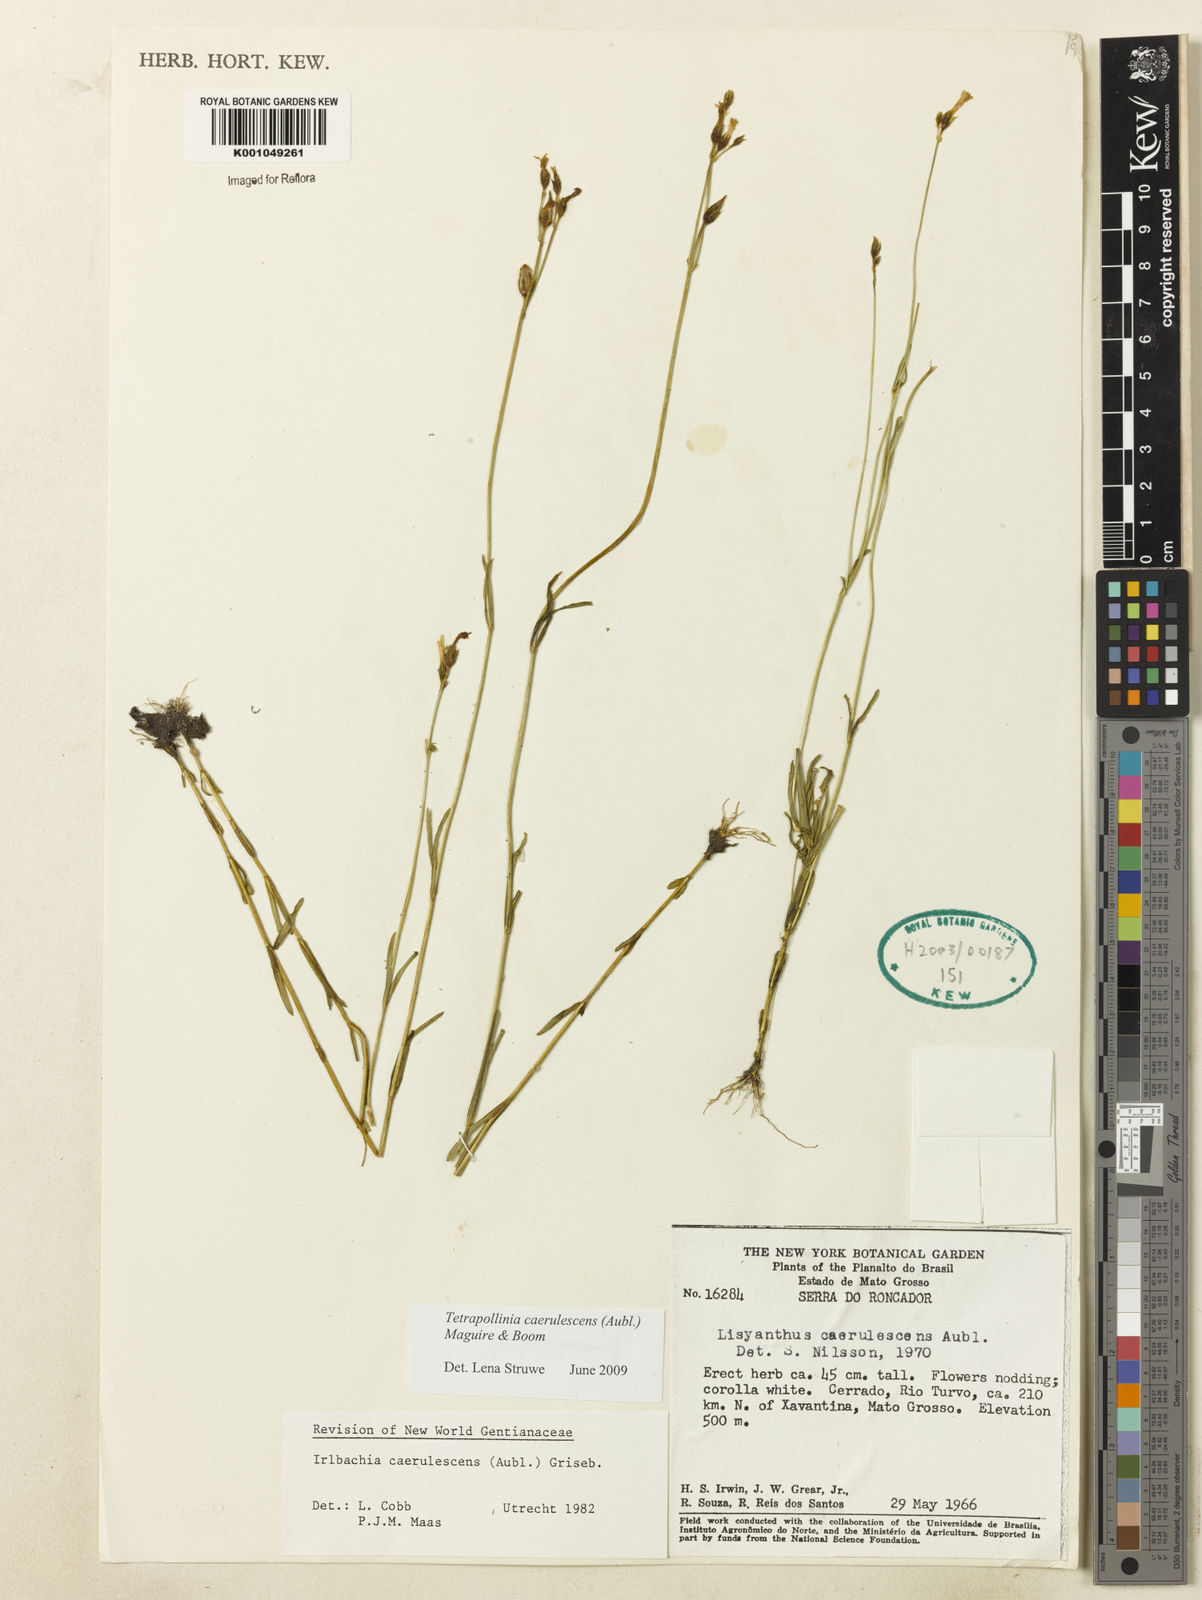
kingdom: Plantae
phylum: Tracheophyta
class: Magnoliopsida
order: Gentianales
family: Gentianaceae
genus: Tetrapollinia
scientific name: Tetrapollinia caerulescens
